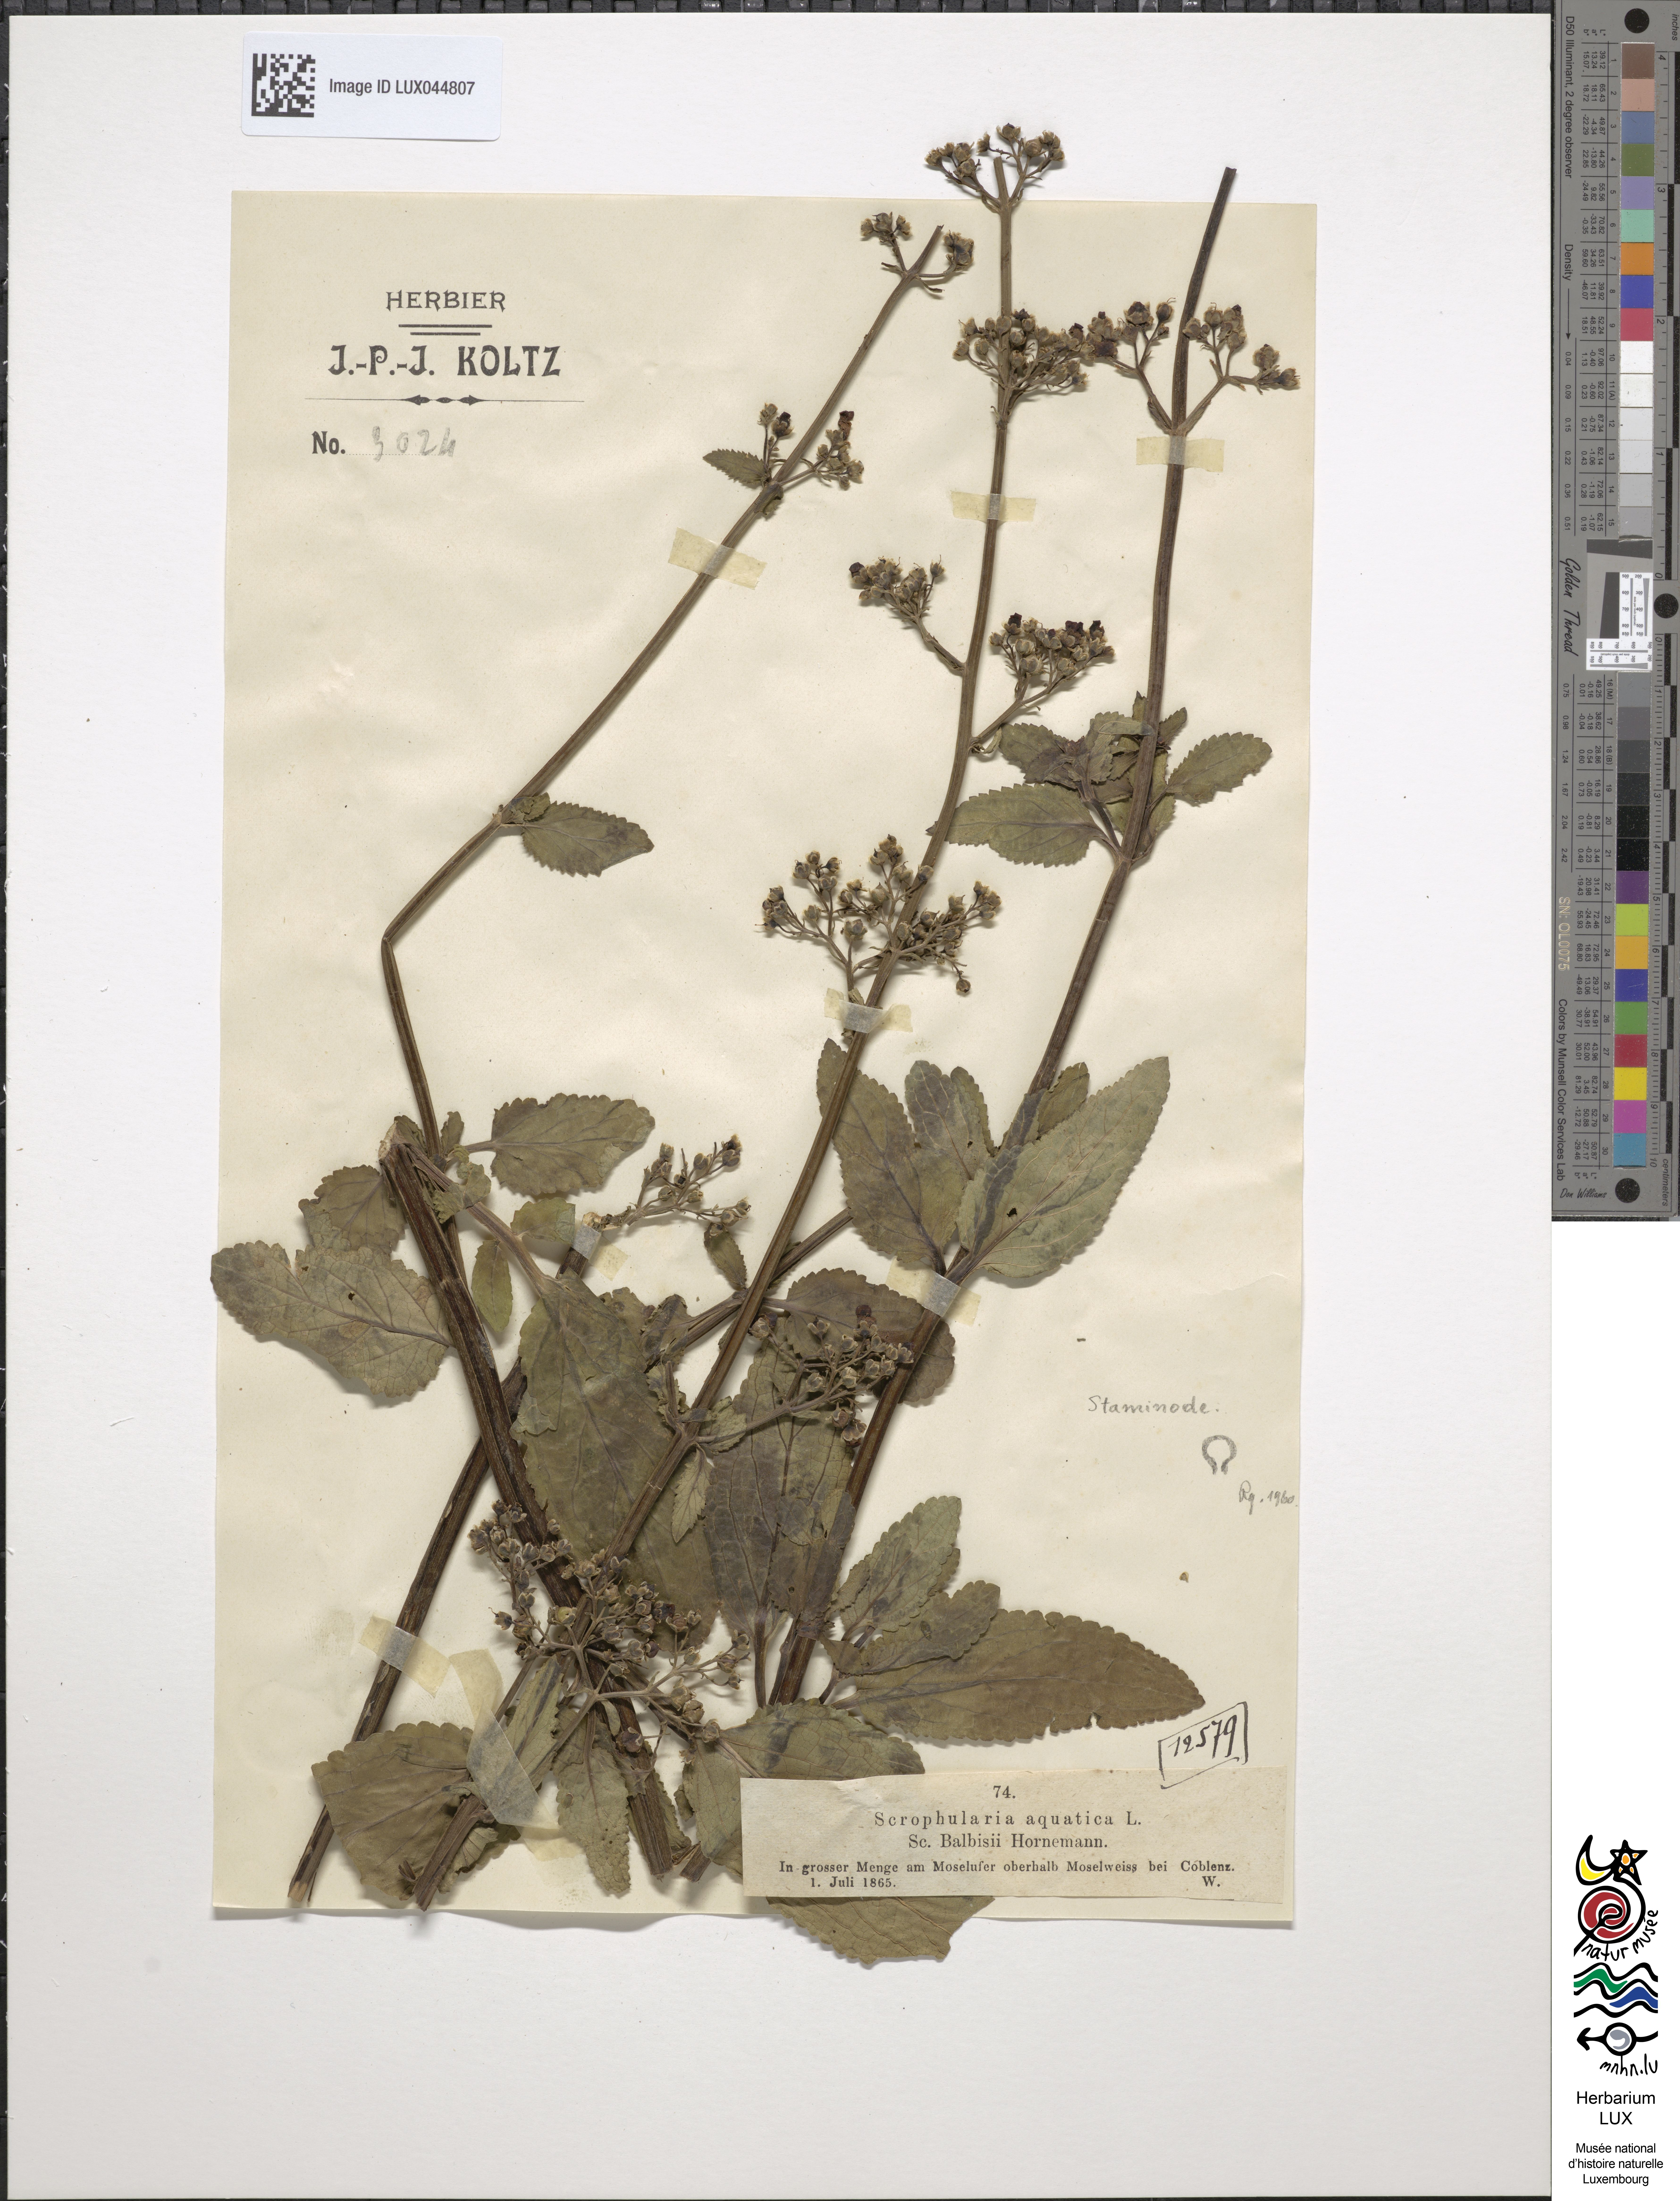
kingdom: Plantae
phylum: Tracheophyta
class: Magnoliopsida
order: Lamiales
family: Scrophulariaceae
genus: Scrophularia
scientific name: Scrophularia auriculata
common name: Water betony
